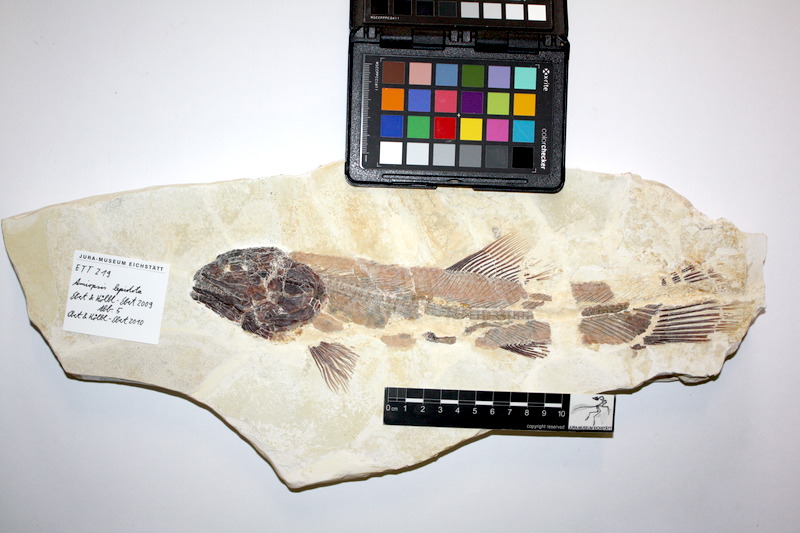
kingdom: Animalia
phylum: Chordata
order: Amiiformes
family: Amiidae
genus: Amiopsis
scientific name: Amiopsis lepidota
